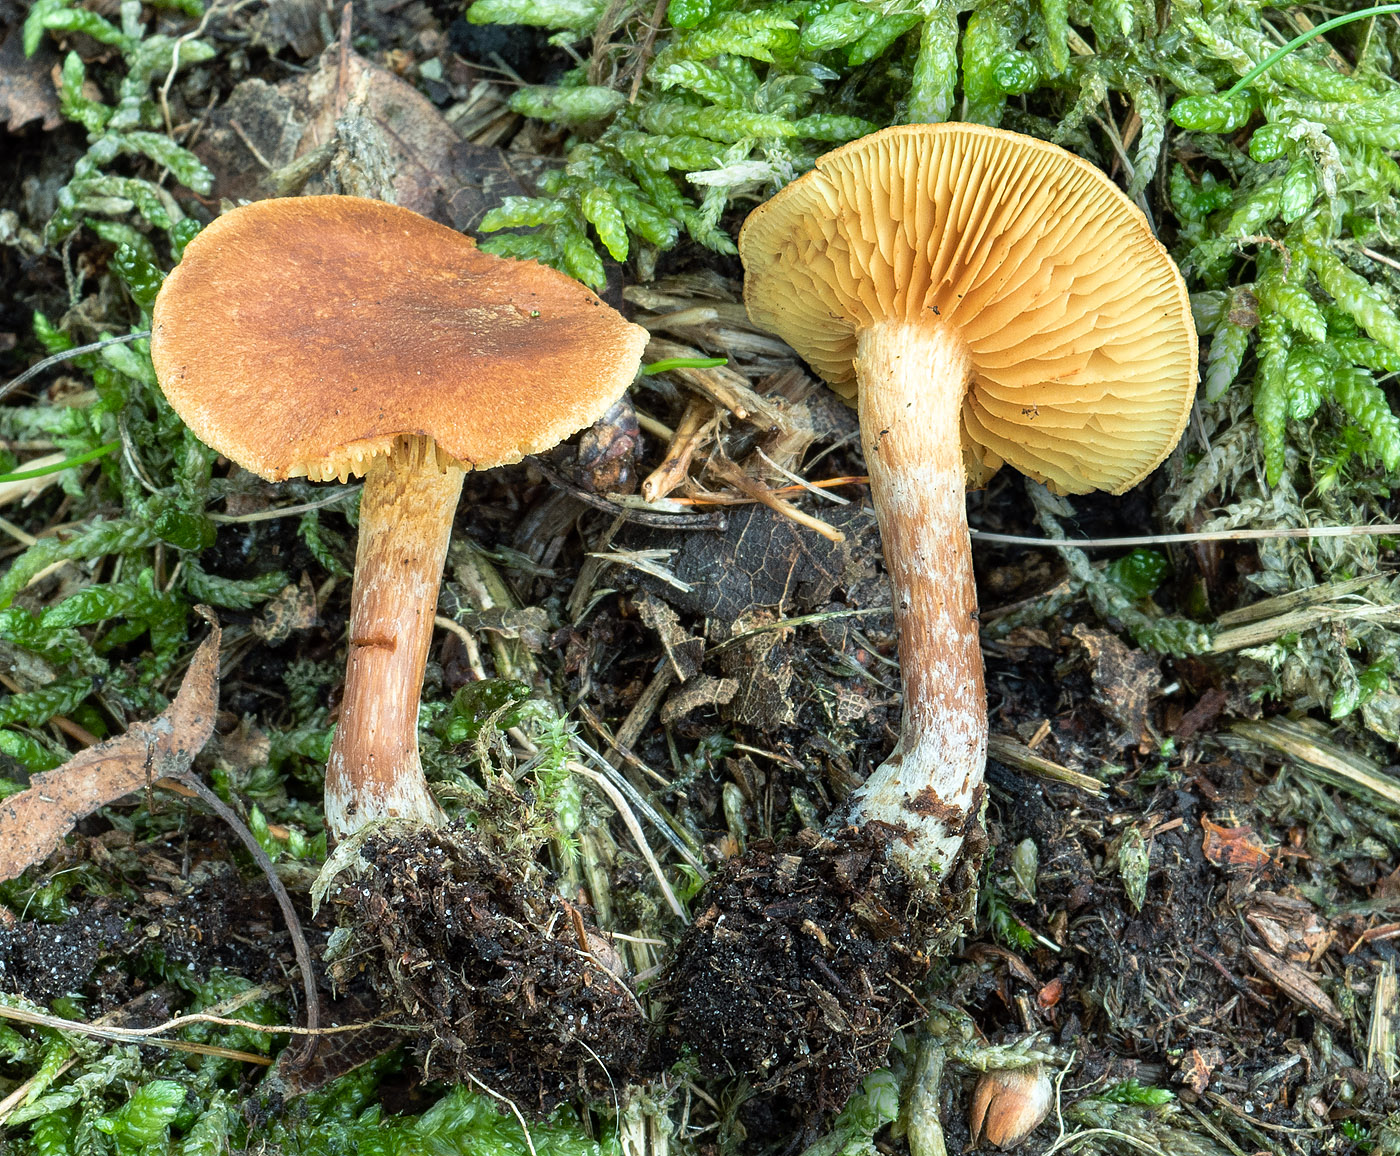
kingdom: Fungi
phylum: Basidiomycota
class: Agaricomycetes
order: Agaricales
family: Hymenogastraceae
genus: Gymnopilus
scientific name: Gymnopilus decipiens
